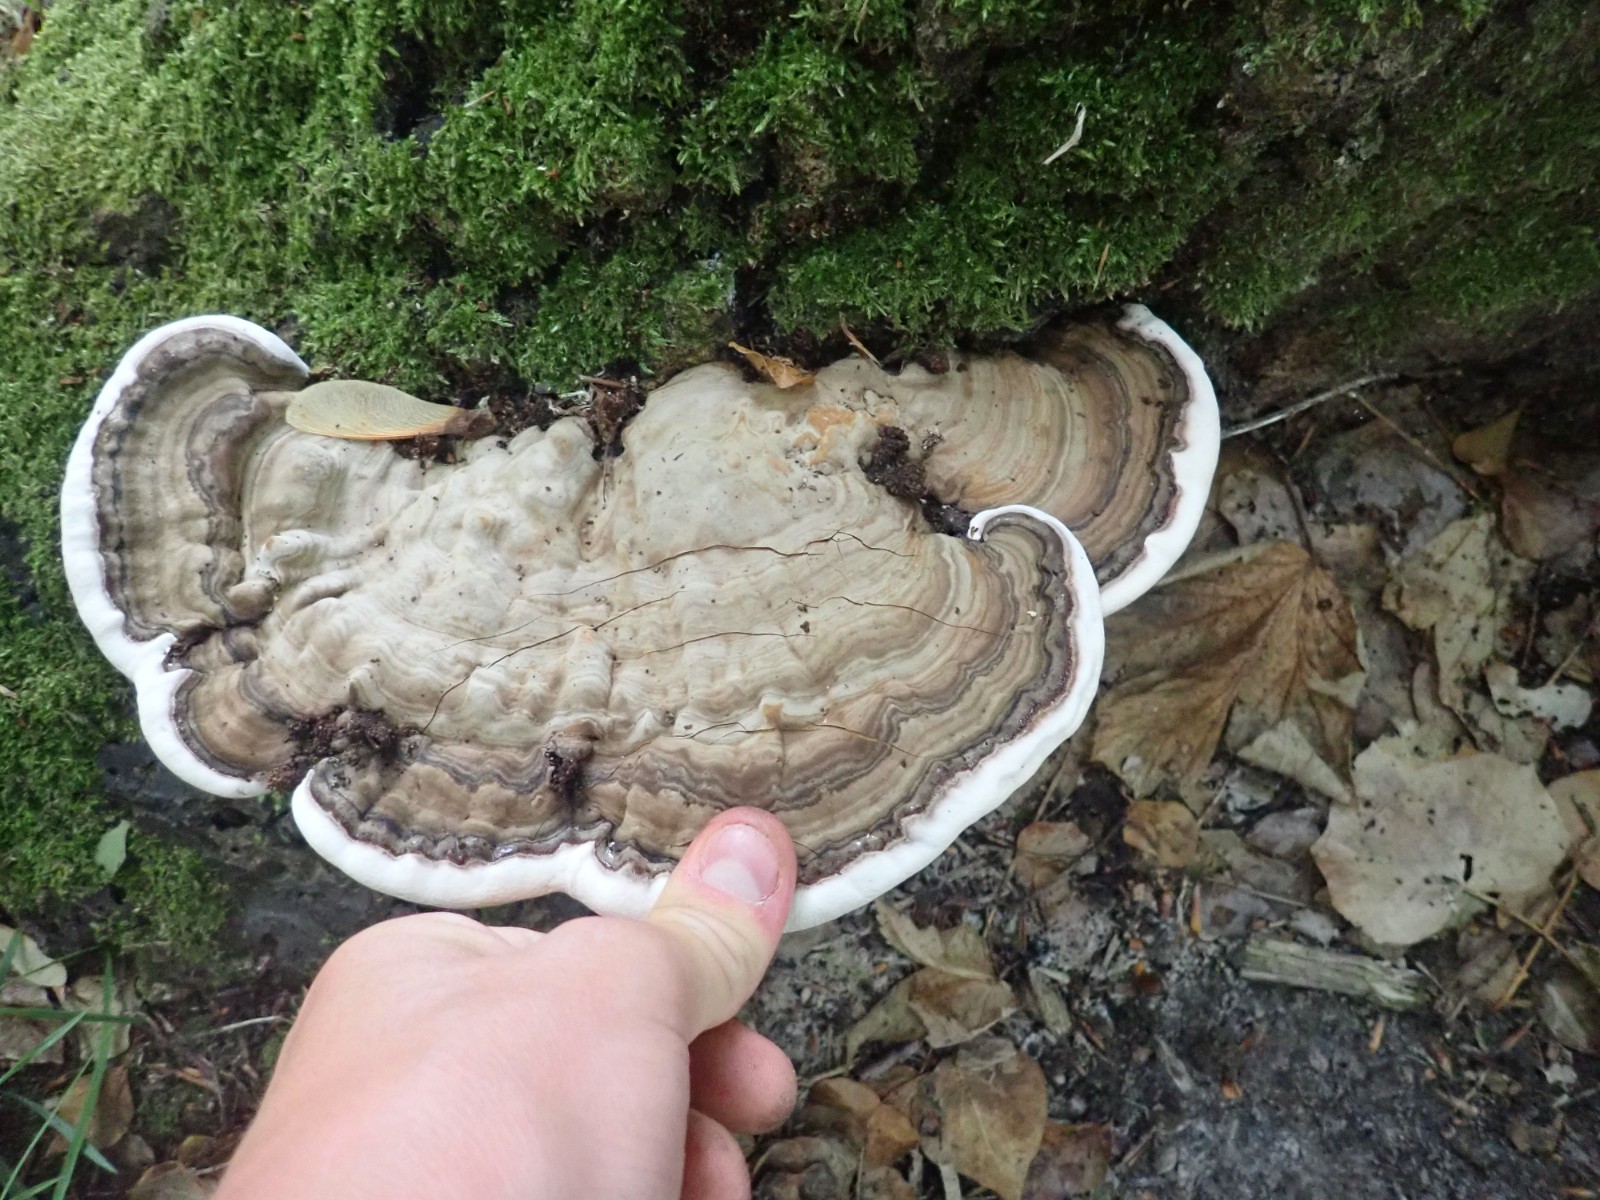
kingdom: Fungi
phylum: Basidiomycota
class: Agaricomycetes
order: Polyporales
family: Polyporaceae
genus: Ganoderma
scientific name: Ganoderma applanatum
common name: flad lakporesvamp
